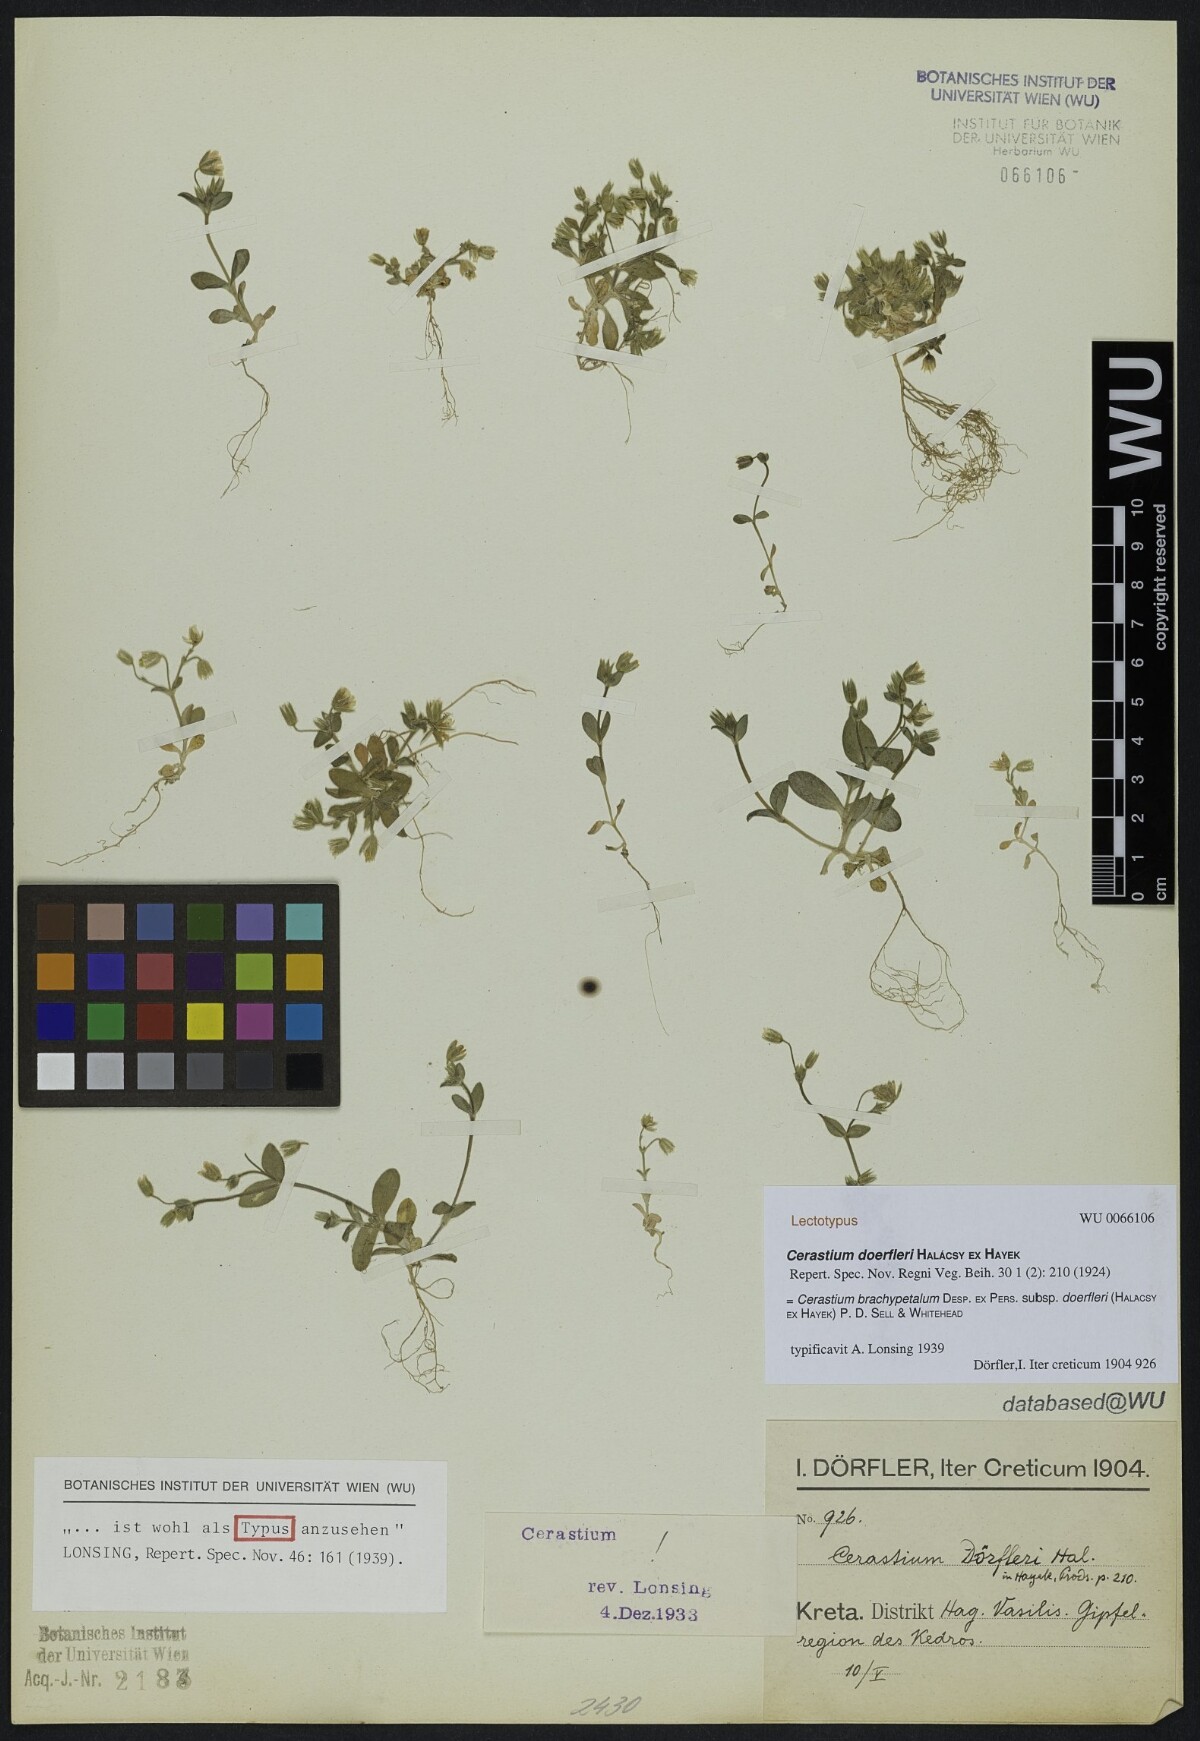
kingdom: Plantae
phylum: Tracheophyta
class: Magnoliopsida
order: Caryophyllales
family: Caryophyllaceae
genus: Cerastium
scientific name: Cerastium brachypetalum
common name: Grey mouse-ear
